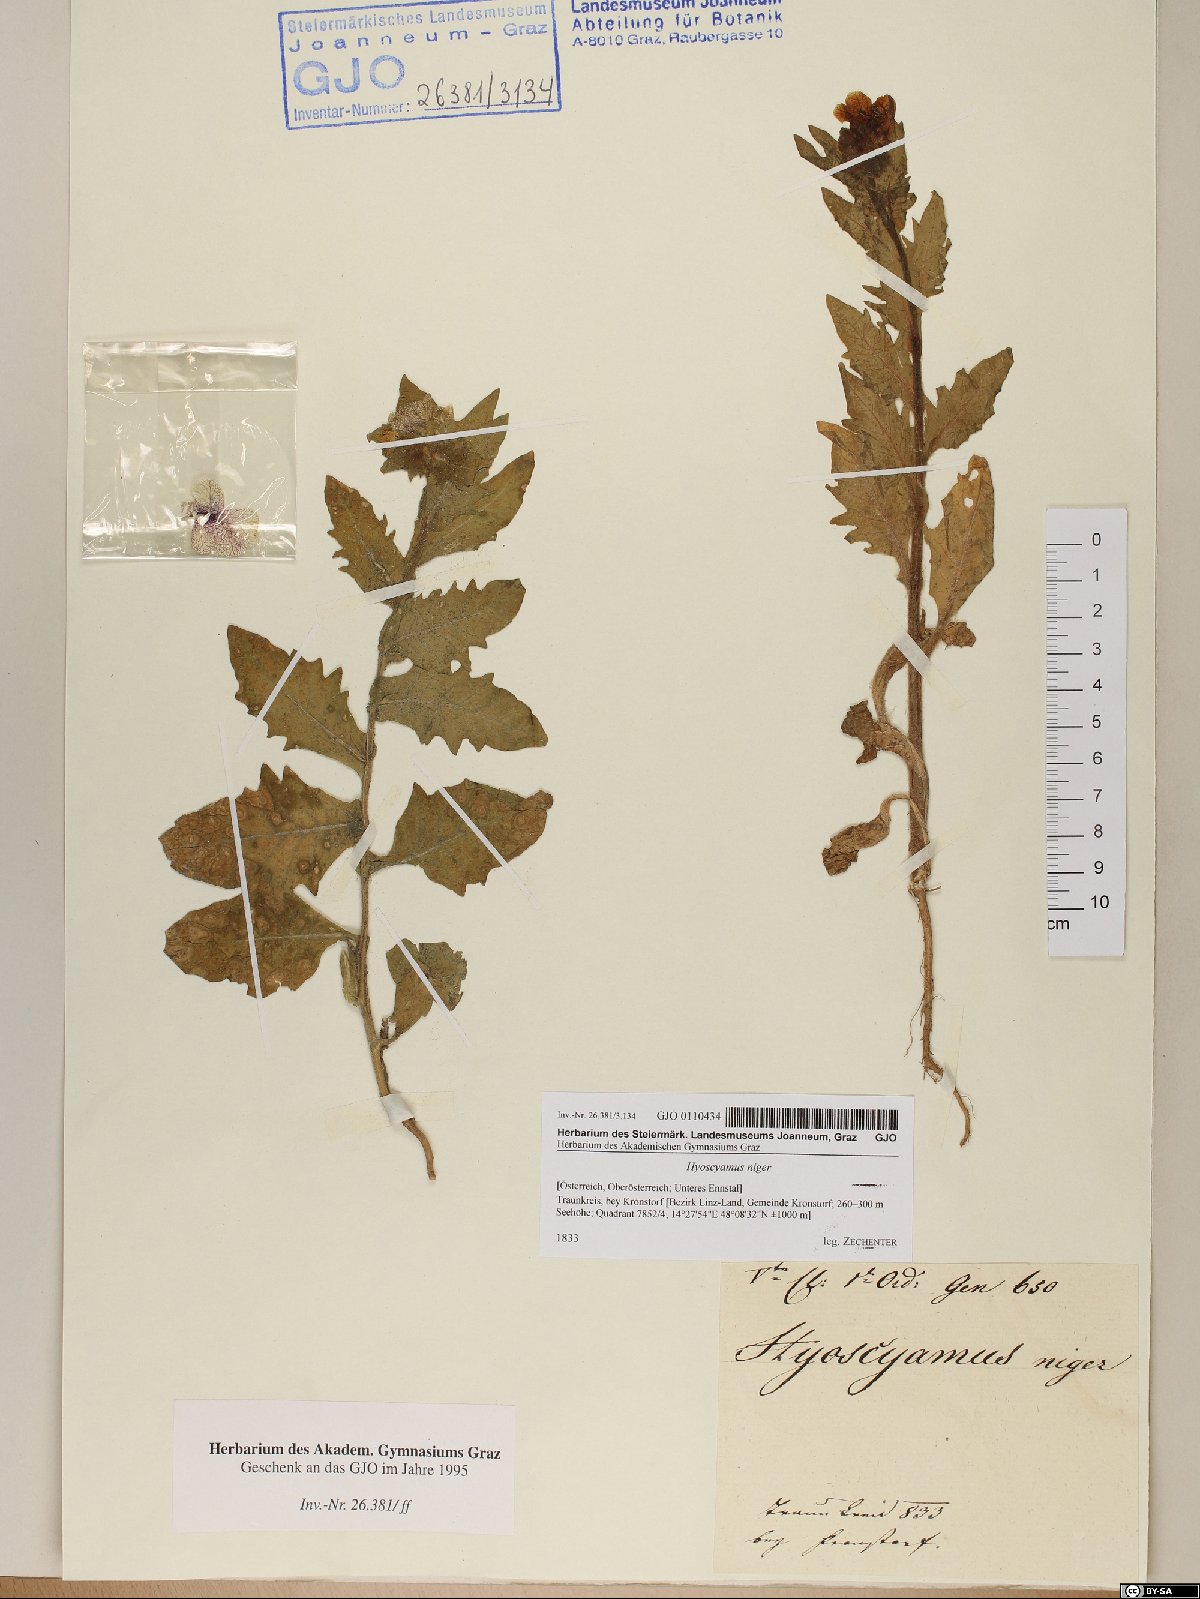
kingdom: Plantae
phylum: Tracheophyta
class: Magnoliopsida
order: Solanales
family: Solanaceae
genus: Hyoscyamus
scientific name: Hyoscyamus niger
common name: Henbane
